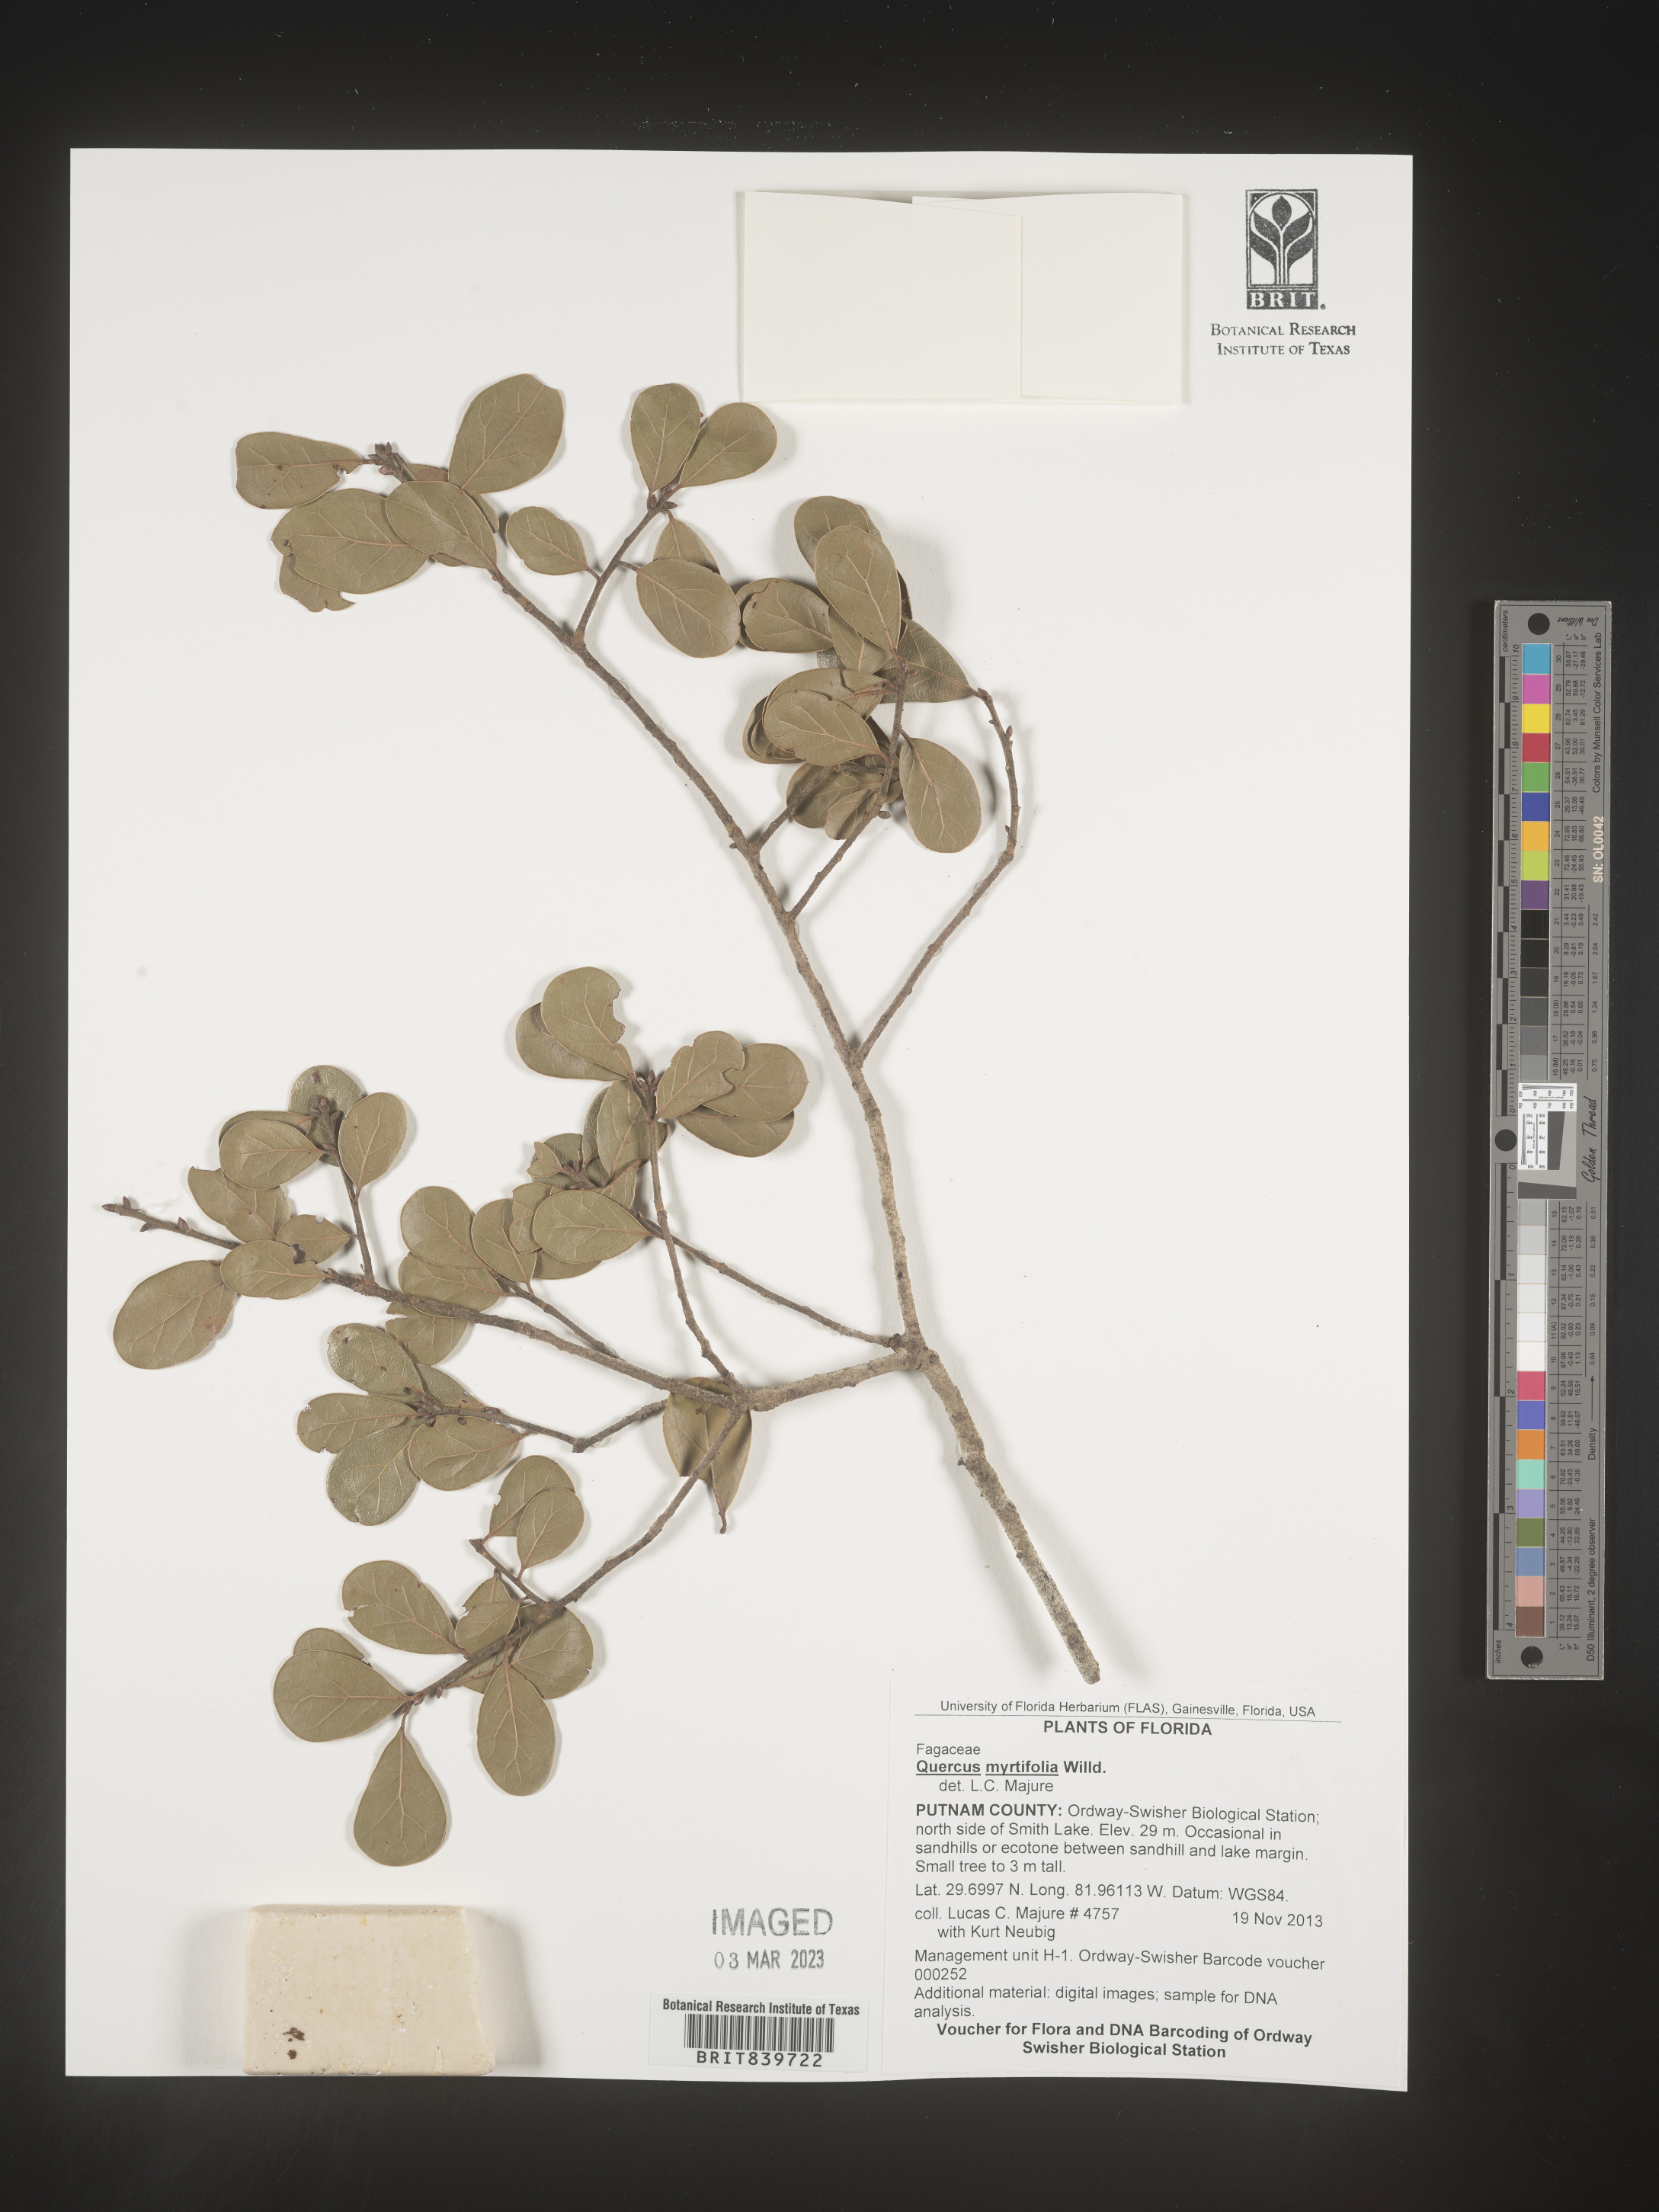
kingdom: Plantae
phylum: Tracheophyta
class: Magnoliopsida
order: Fagales
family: Fagaceae
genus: Quercus
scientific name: Quercus
